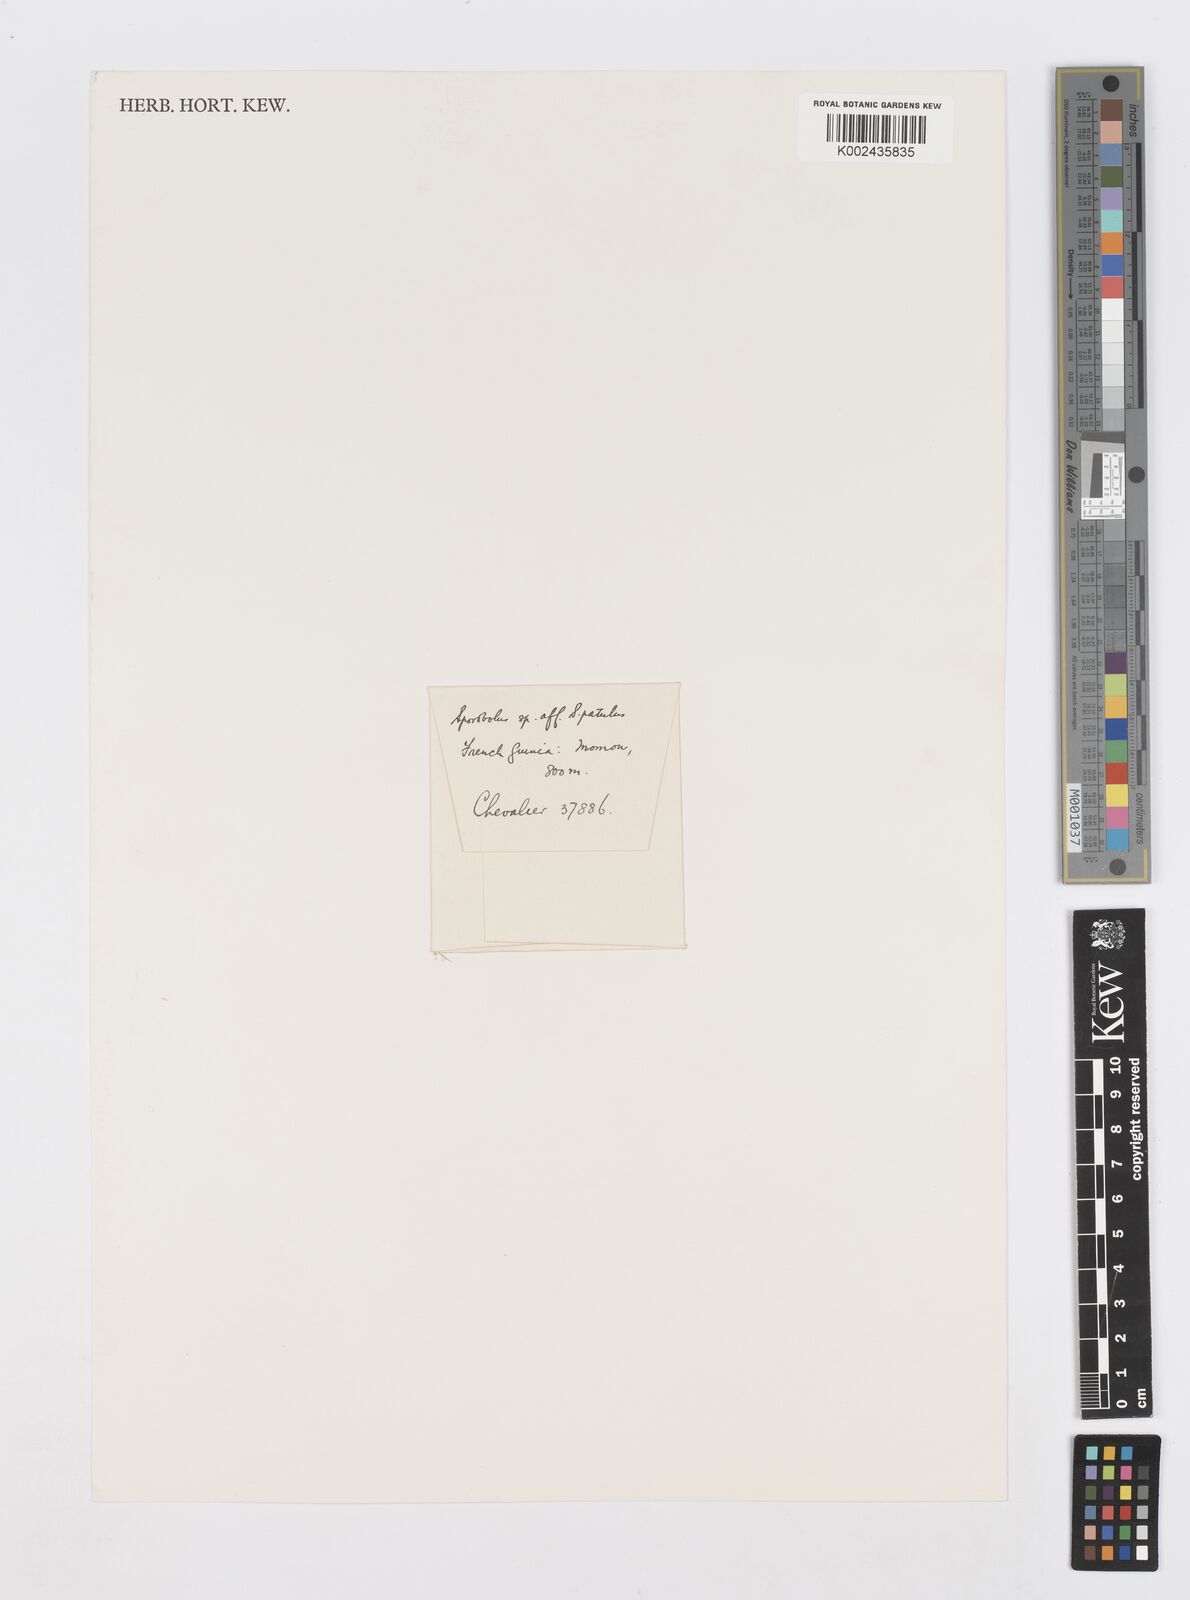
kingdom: Plantae
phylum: Tracheophyta
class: Liliopsida
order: Poales
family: Poaceae
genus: Sporobolus
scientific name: Sporobolus paniculatus
